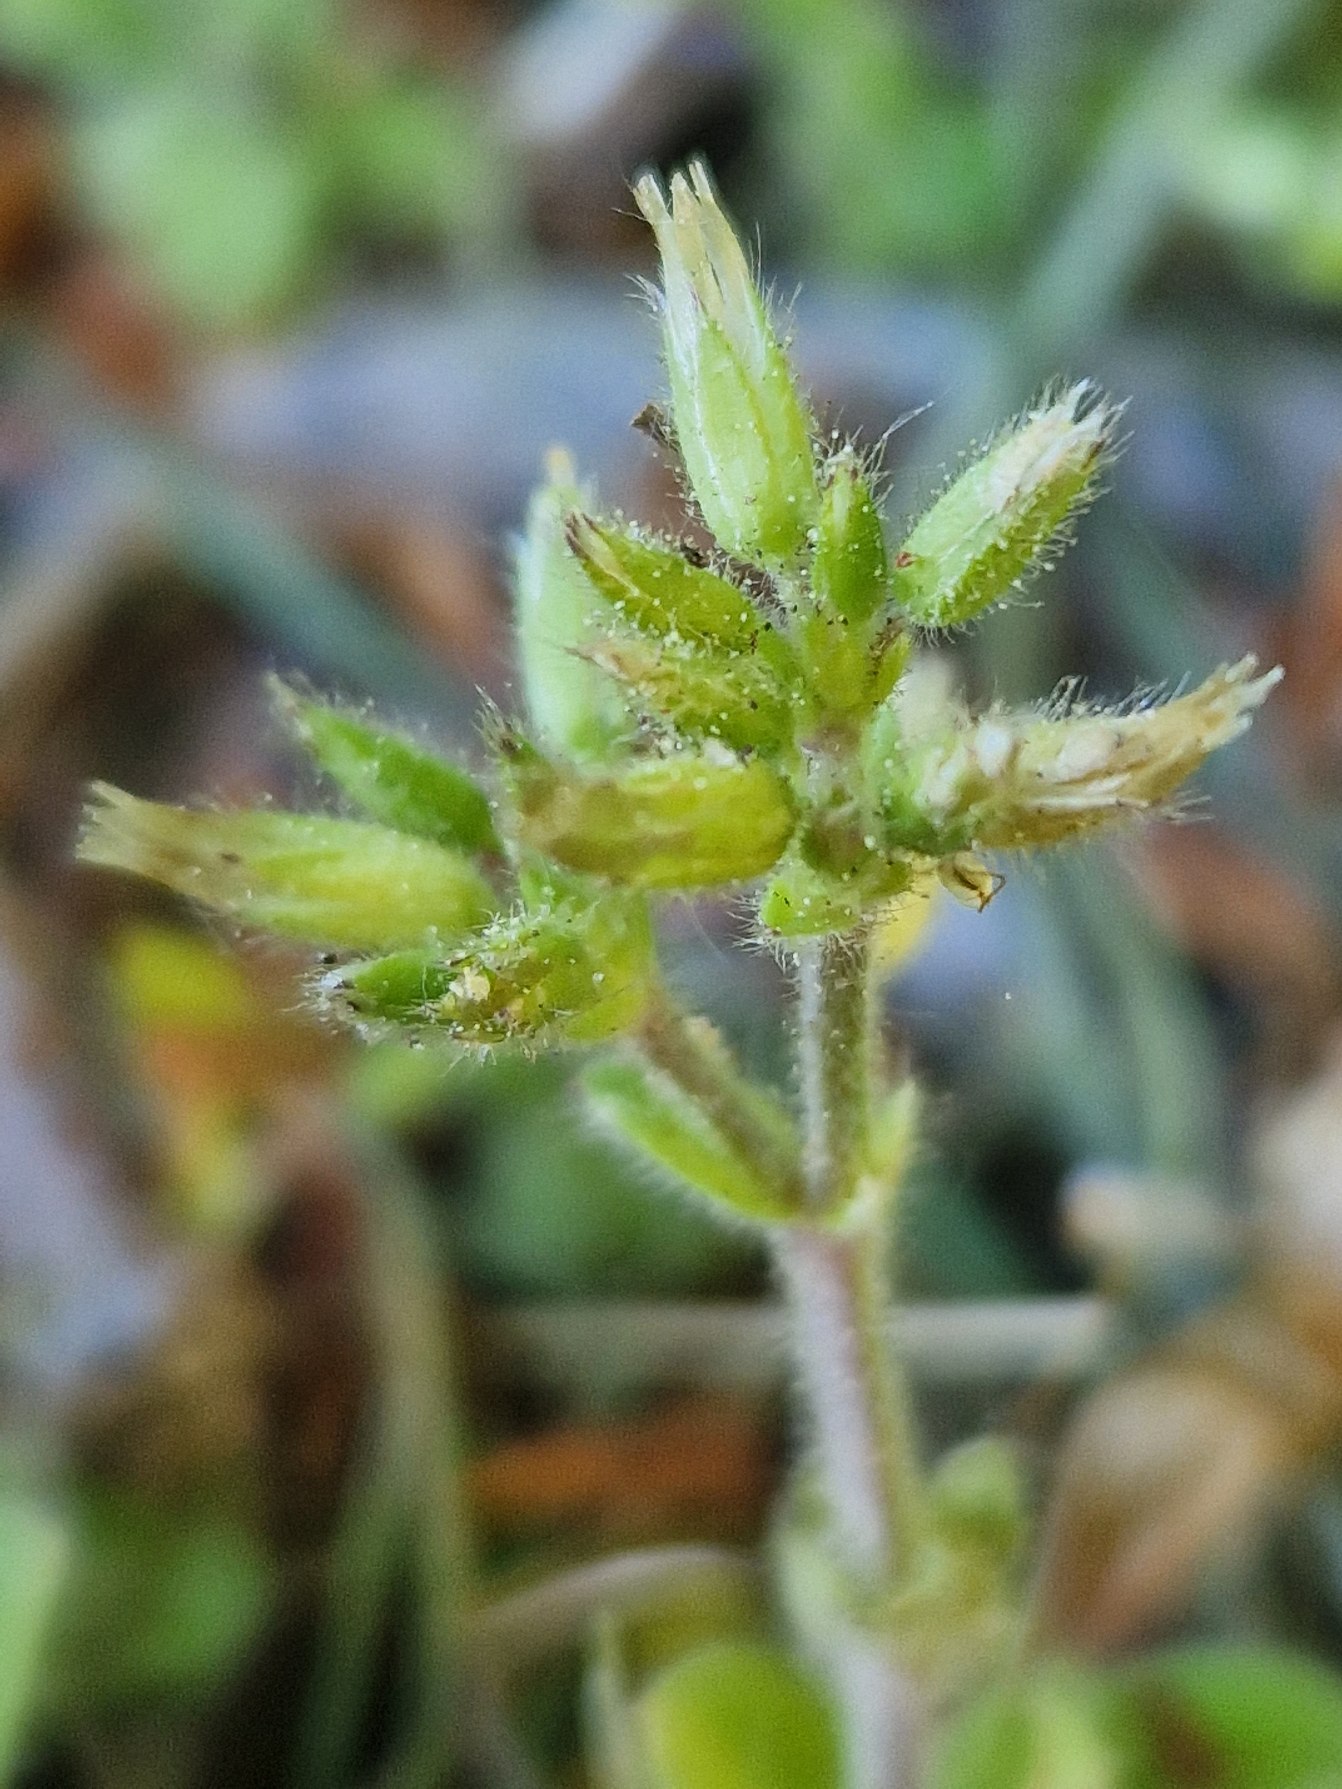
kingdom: Plantae
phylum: Tracheophyta
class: Magnoliopsida
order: Caryophyllales
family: Caryophyllaceae
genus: Cerastium
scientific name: Cerastium glomeratum
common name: Opret hønsetarm
